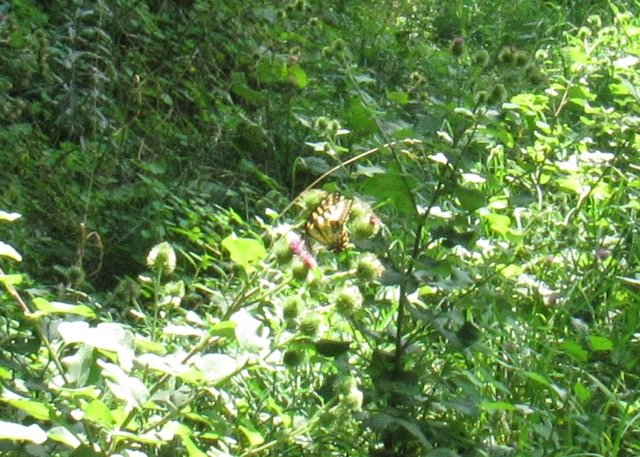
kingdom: Animalia
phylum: Arthropoda
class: Insecta
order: Lepidoptera
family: Papilionidae
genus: Pterourus
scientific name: Pterourus
